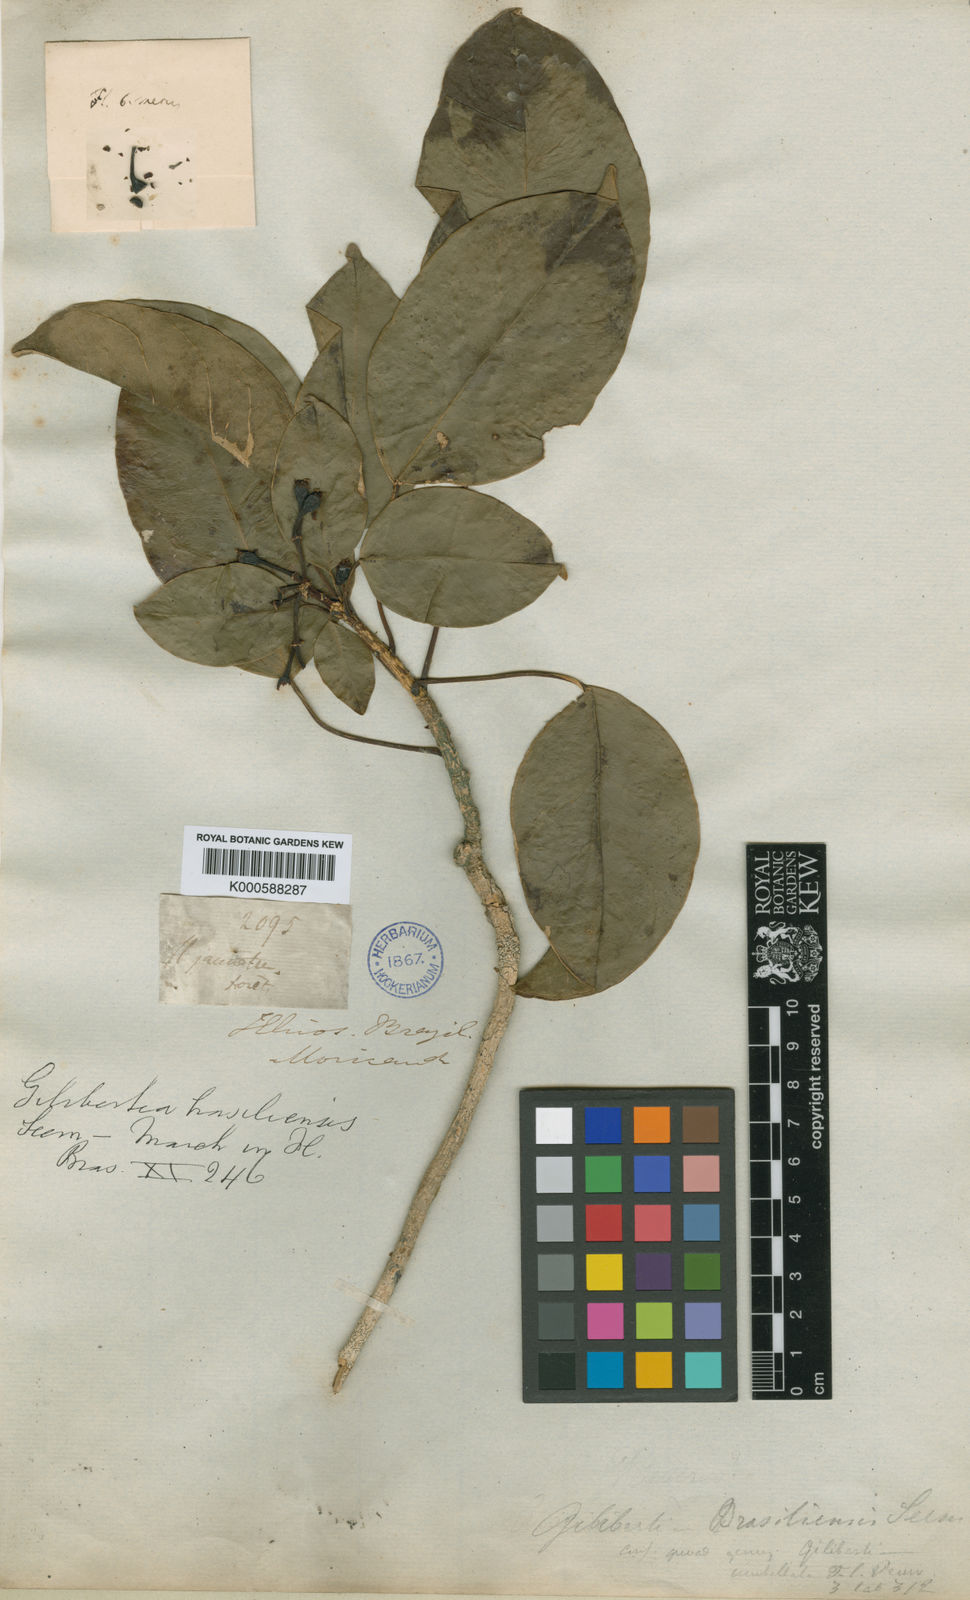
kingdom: Plantae
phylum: Tracheophyta
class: Magnoliopsida
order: Apiales
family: Araliaceae
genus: Dendropanax
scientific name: Dendropanax brasiliensis
